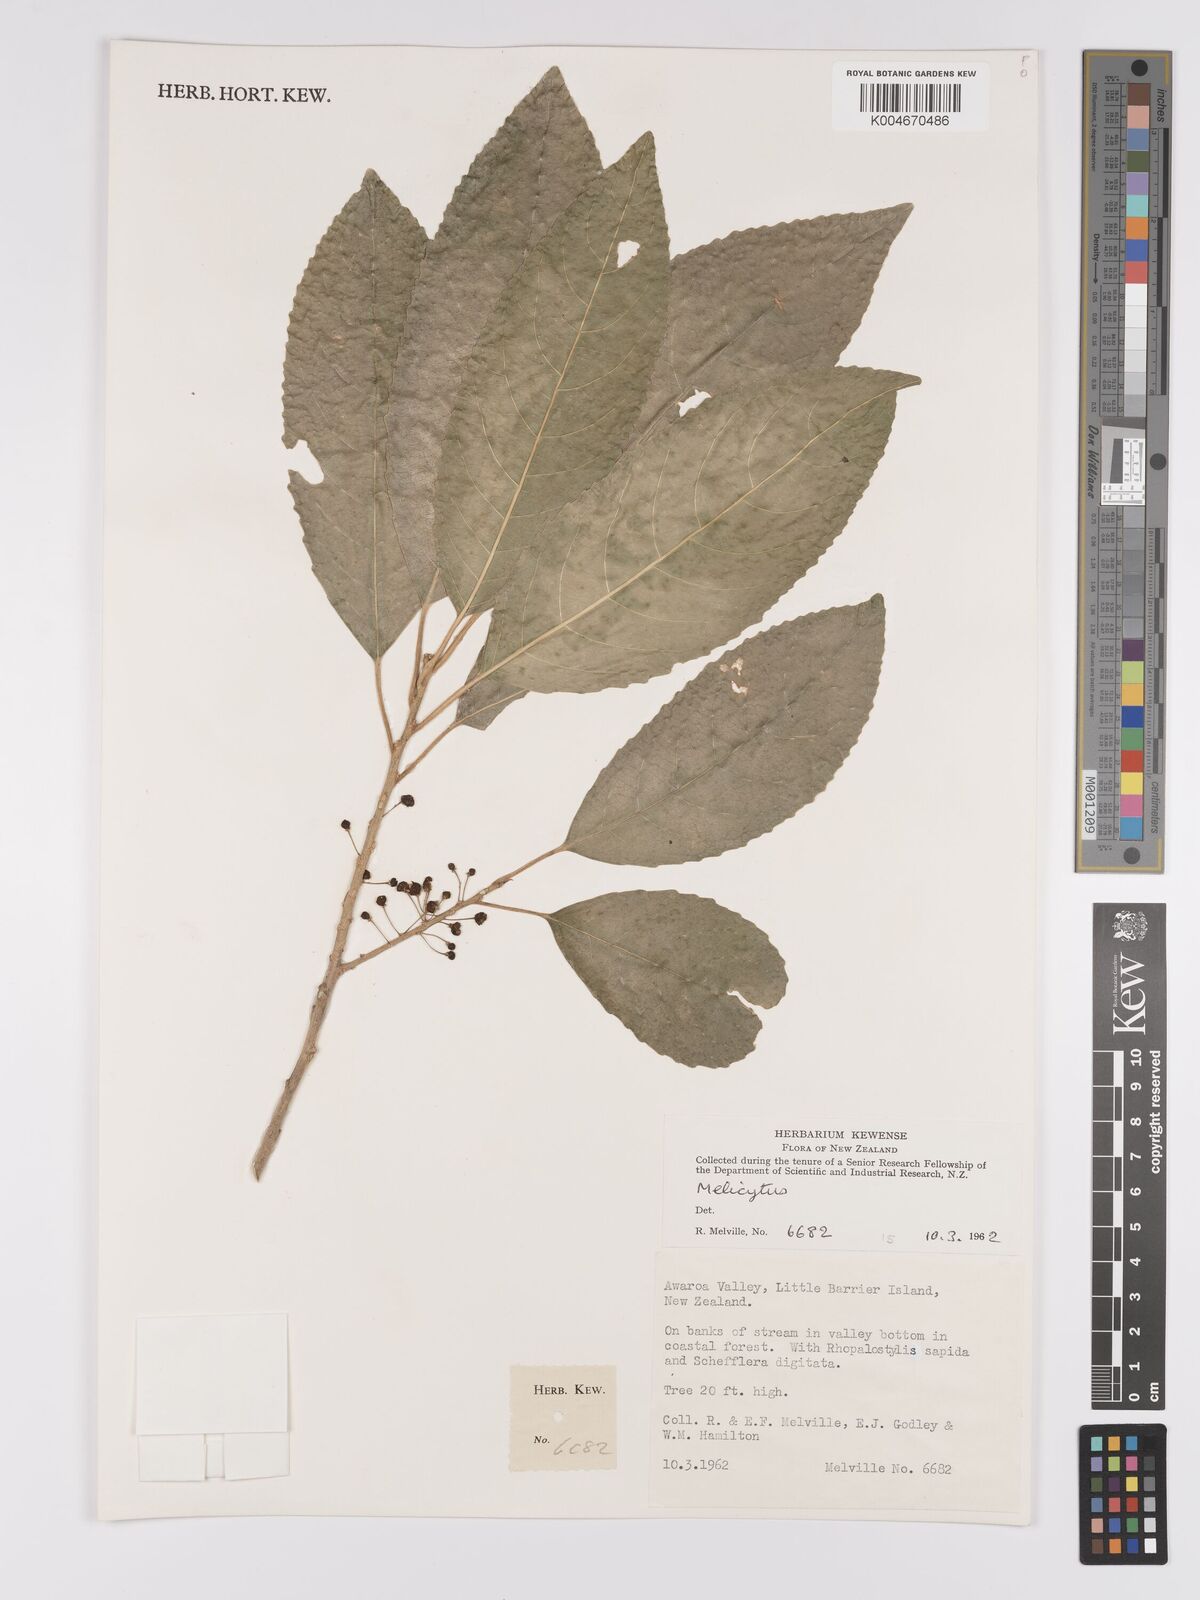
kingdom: Plantae
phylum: Tracheophyta
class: Magnoliopsida
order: Malpighiales
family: Violaceae
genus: Melicytus
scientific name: Melicytus
